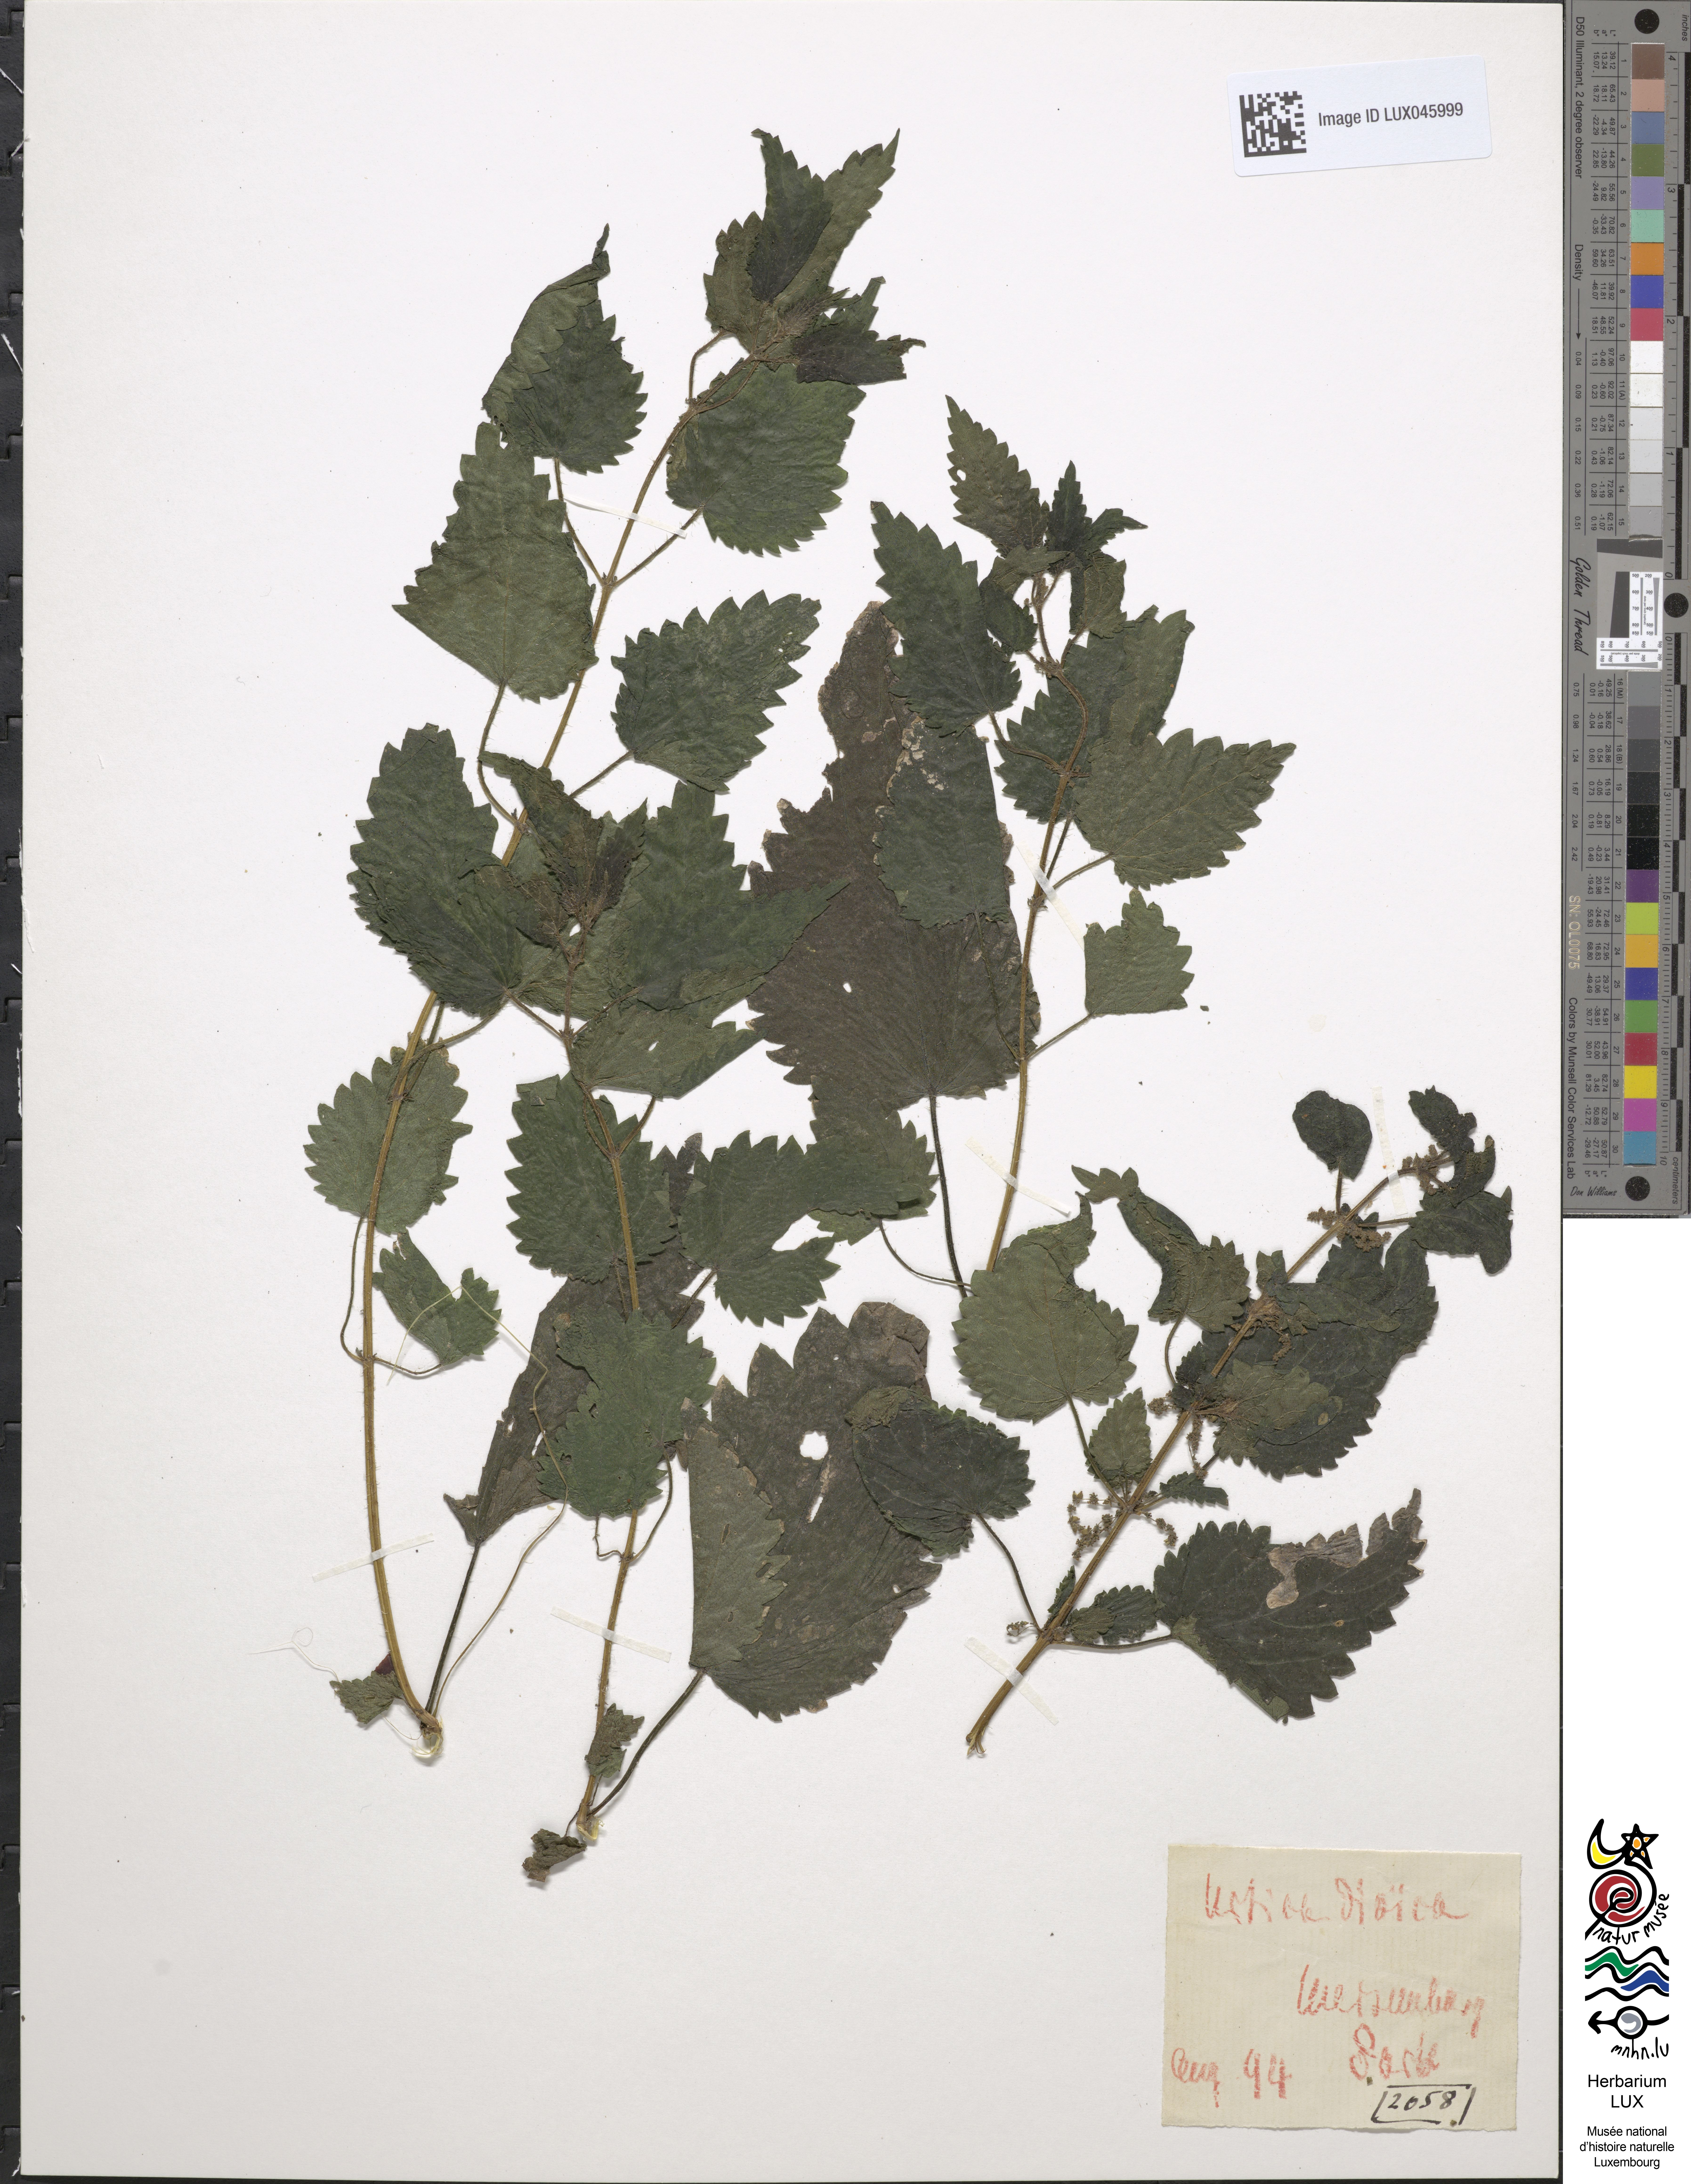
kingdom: Plantae
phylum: Tracheophyta
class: Magnoliopsida
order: Rosales
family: Urticaceae
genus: Urtica
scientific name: Urtica dioica
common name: Common nettle
